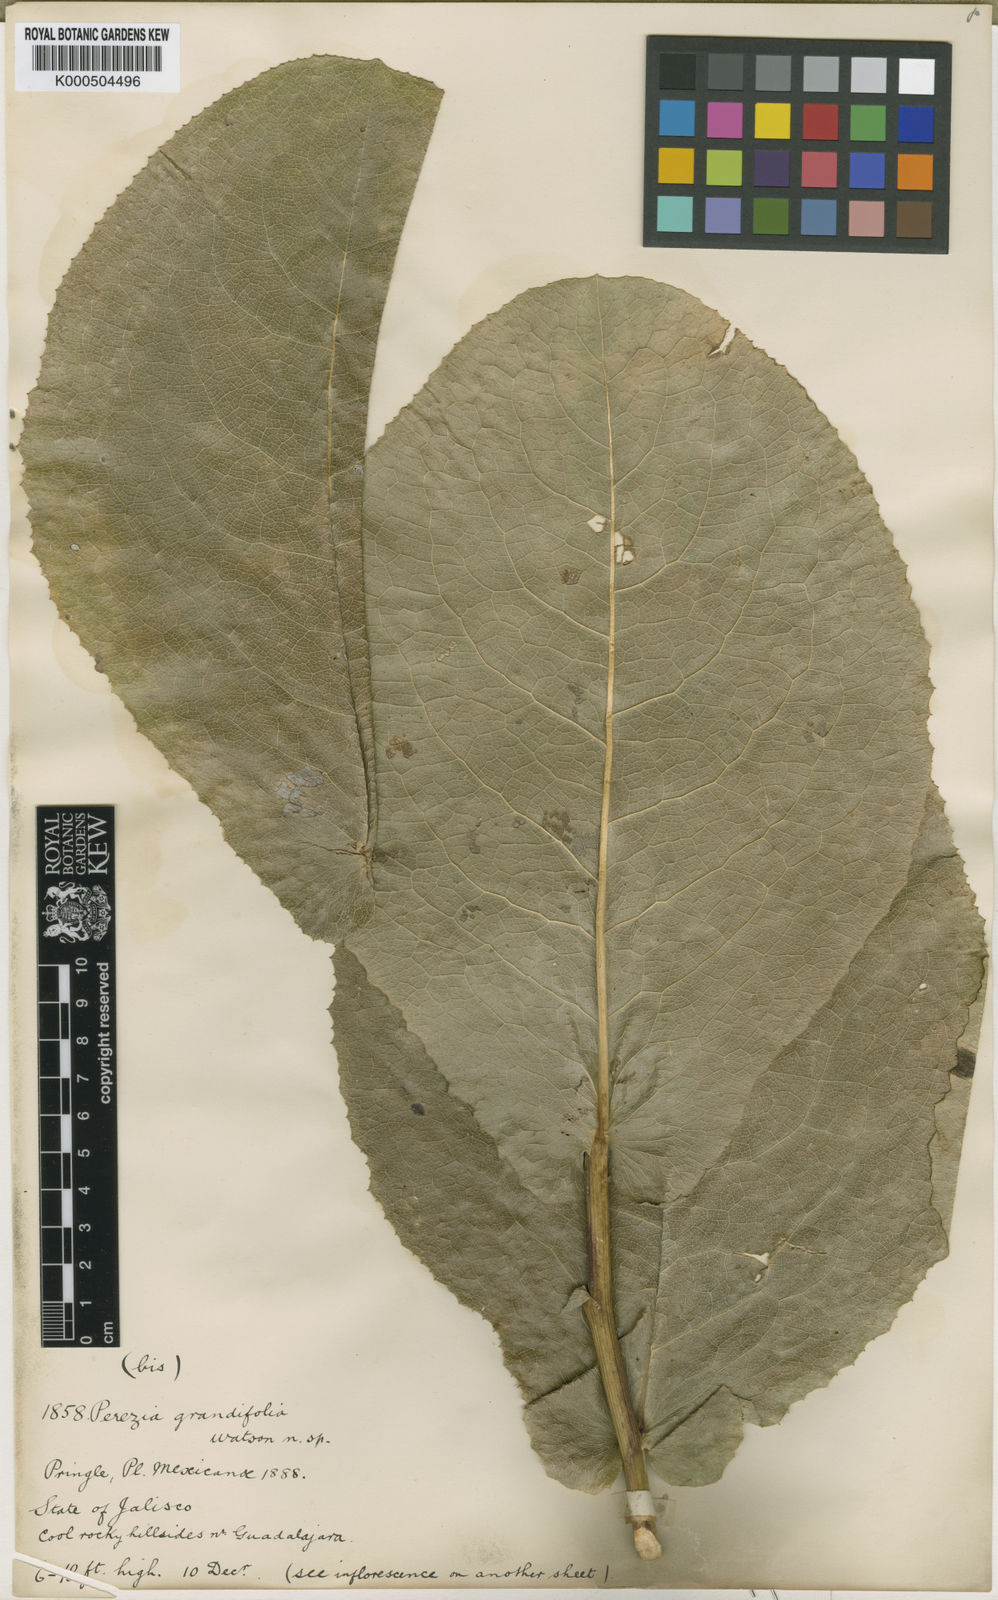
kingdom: Plantae
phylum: Tracheophyta
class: Magnoliopsida
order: Asterales
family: Asteraceae
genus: Acourtia
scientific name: Acourtia grandifolia
